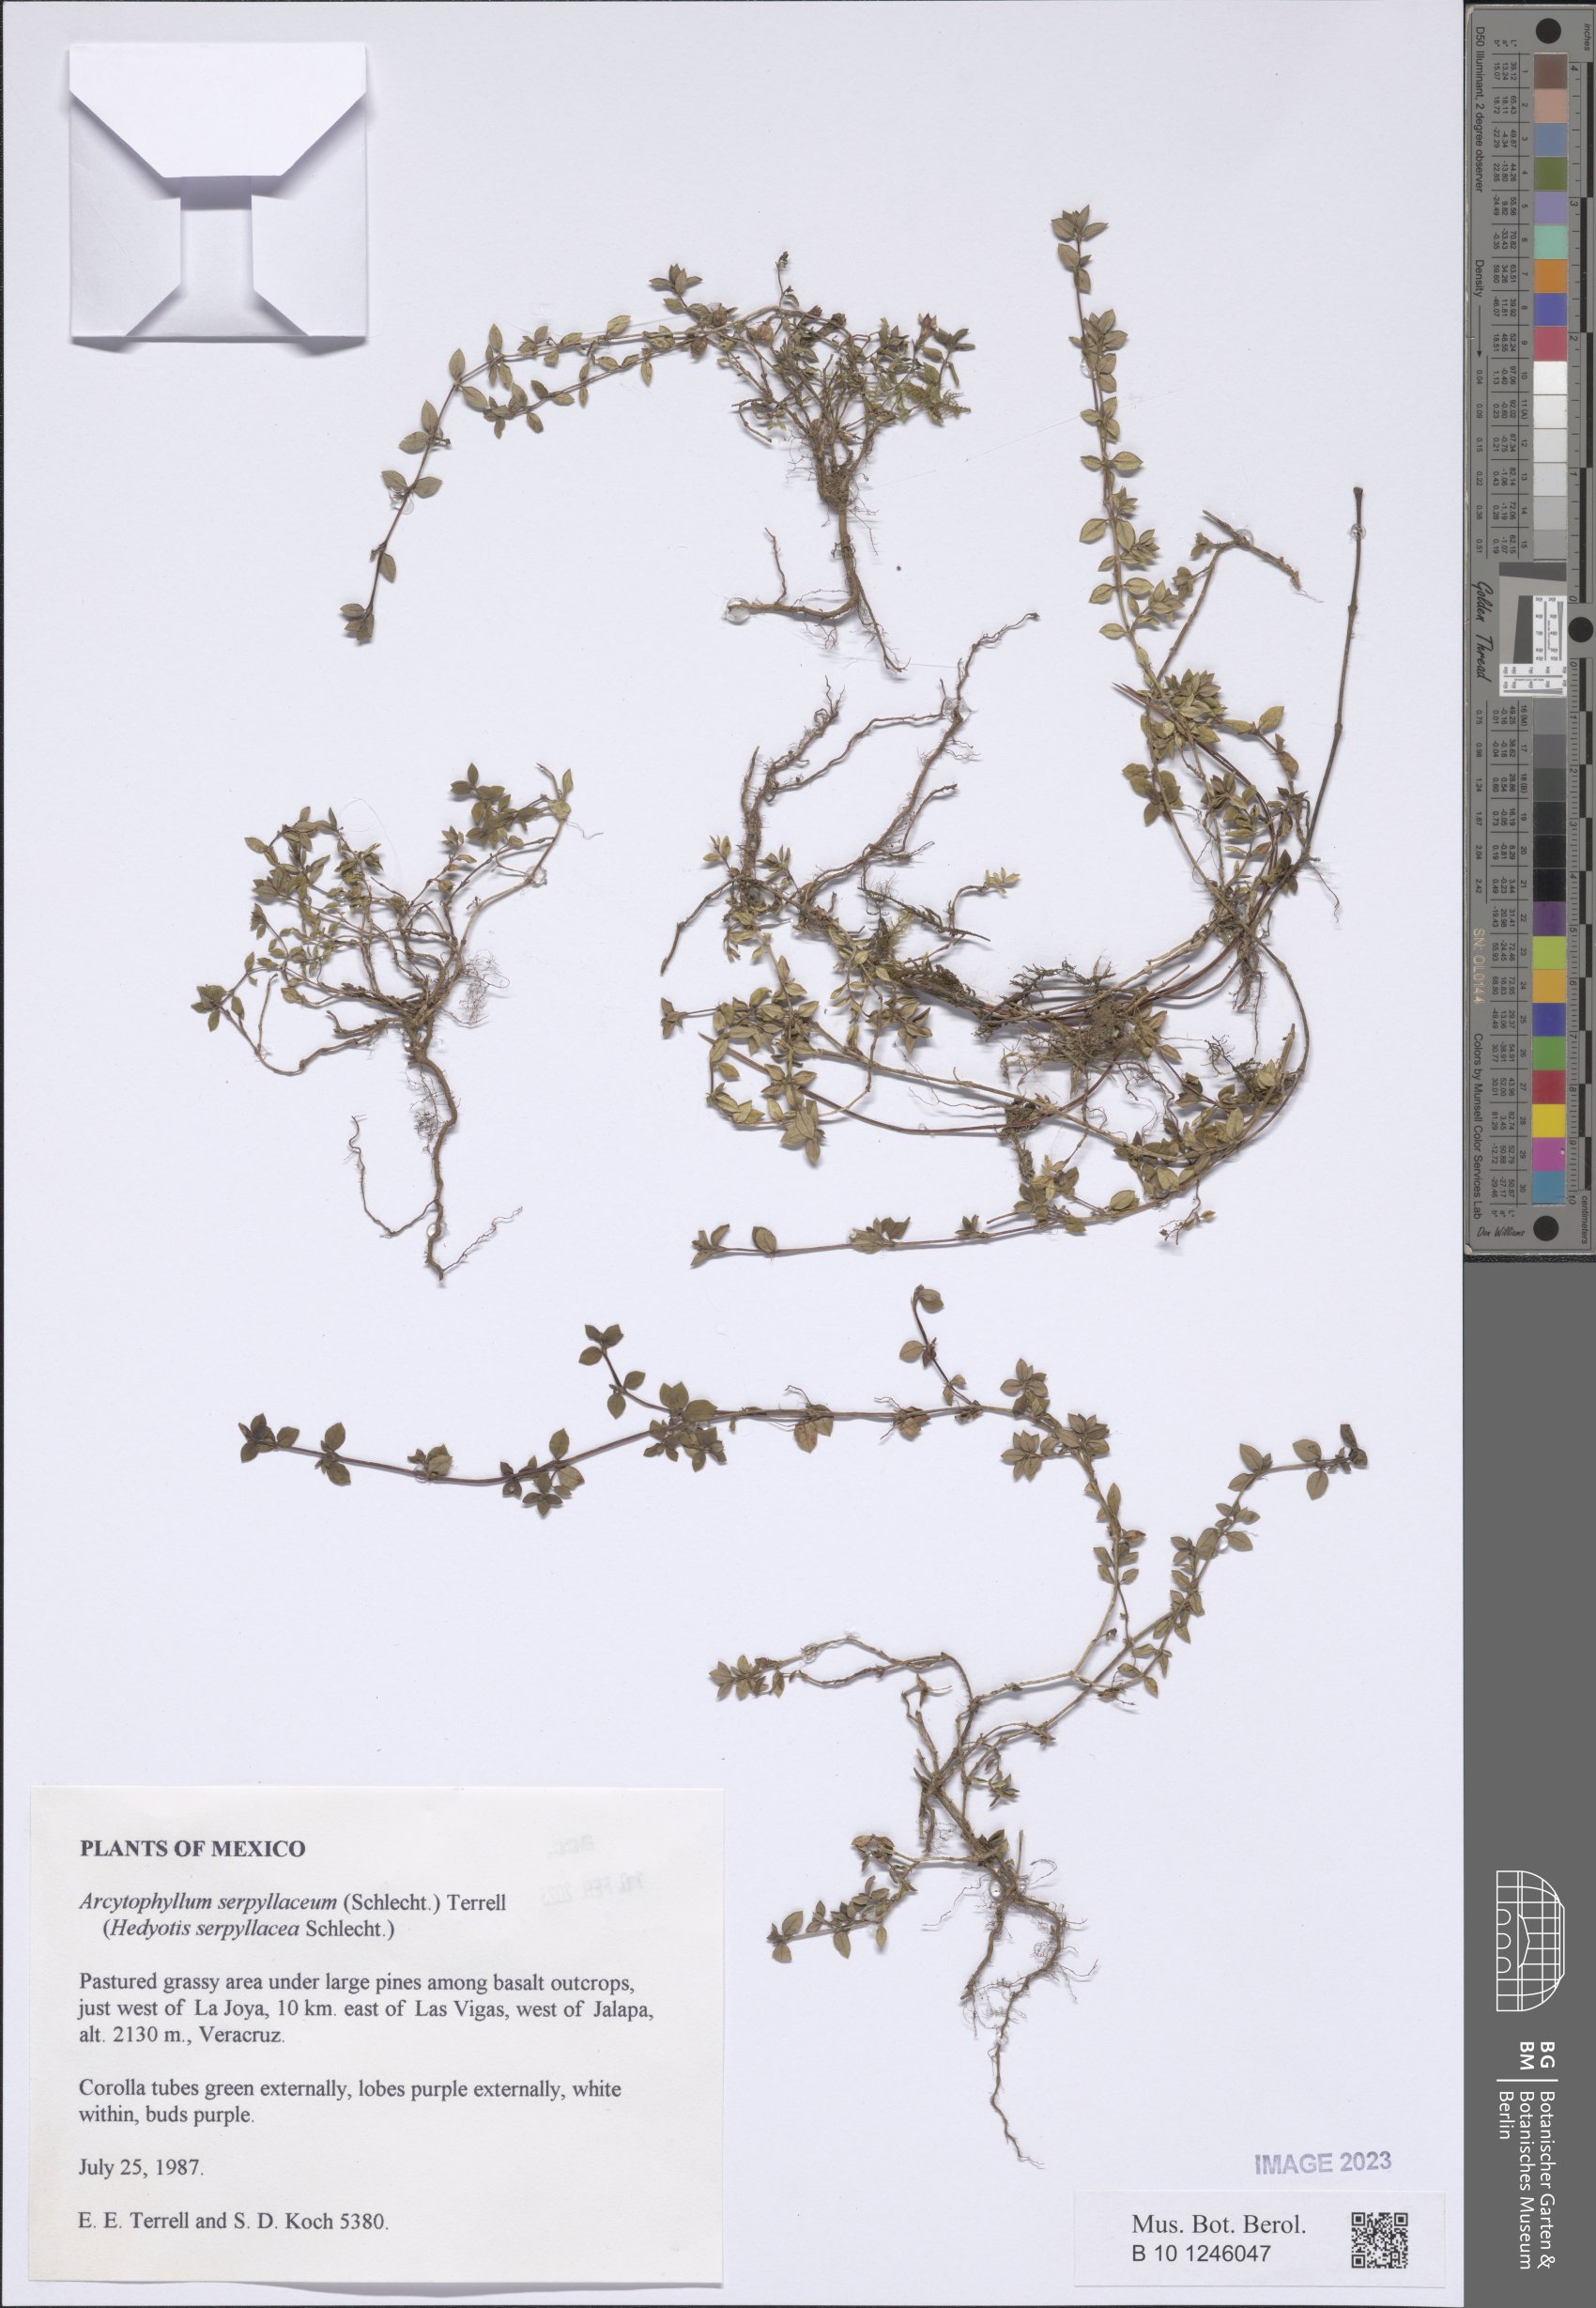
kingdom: Plantae
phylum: Tracheophyta
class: Magnoliopsida
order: Gentianales
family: Rubiaceae
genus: Arcytophyllum
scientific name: Arcytophyllum serpyllaceum
